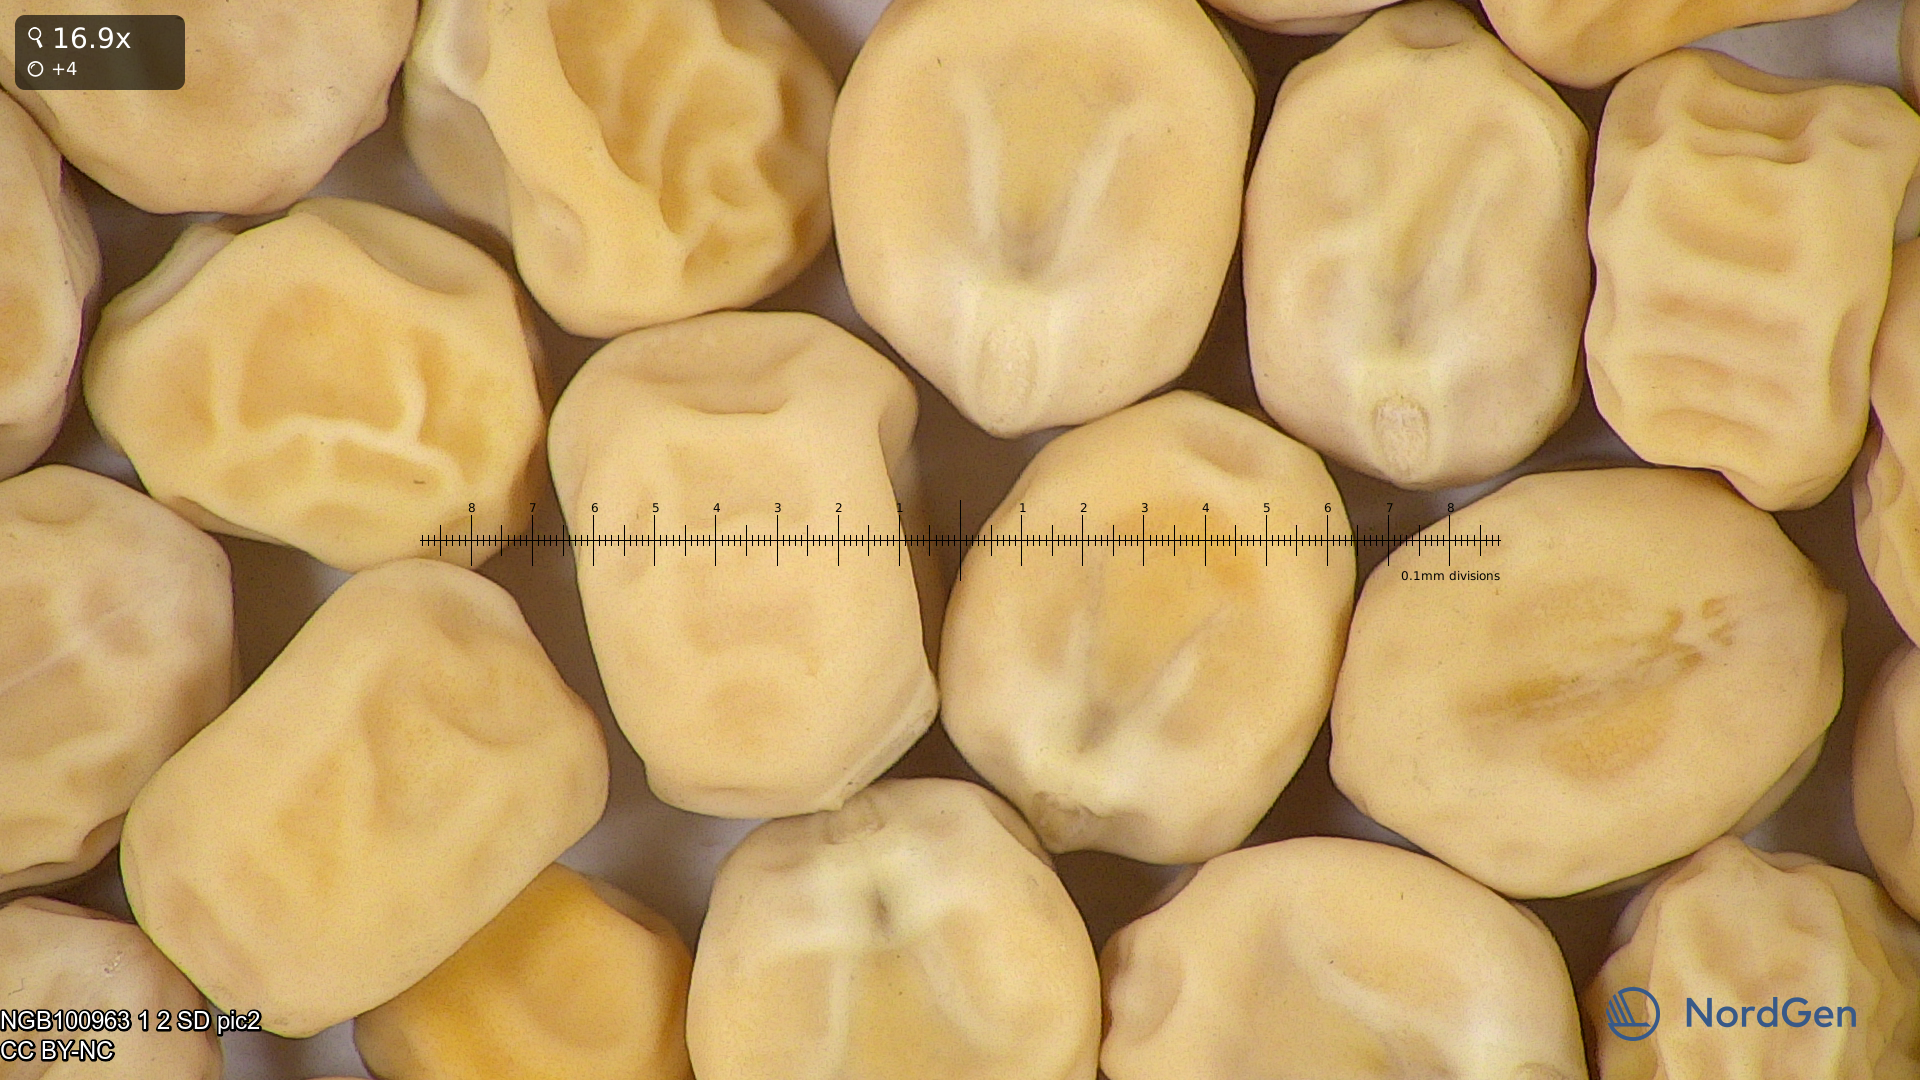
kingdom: Plantae
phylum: Tracheophyta
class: Magnoliopsida
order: Fabales
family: Fabaceae
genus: Lathyrus
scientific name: Lathyrus oleraceus
